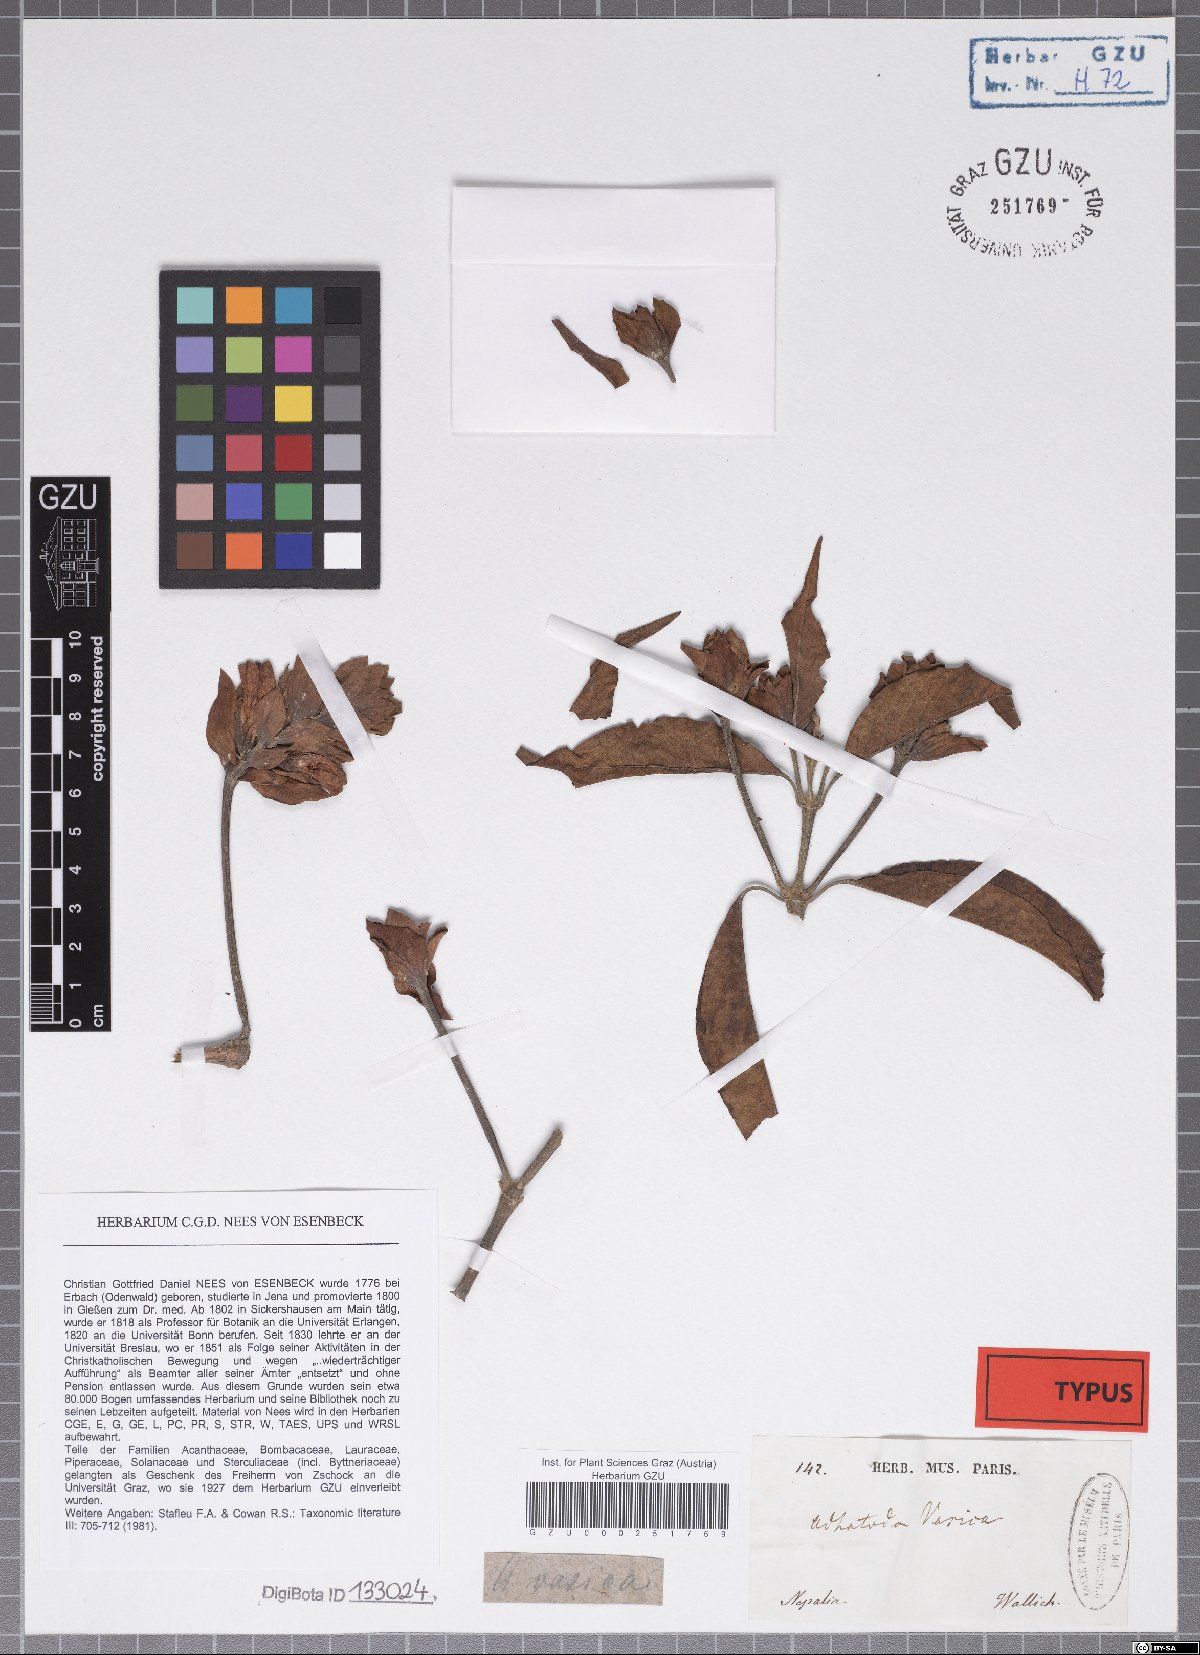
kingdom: Plantae
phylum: Tracheophyta
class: Magnoliopsida
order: Lamiales
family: Acanthaceae
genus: Justicia
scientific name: Justicia adhatoda
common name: Malabar nut
